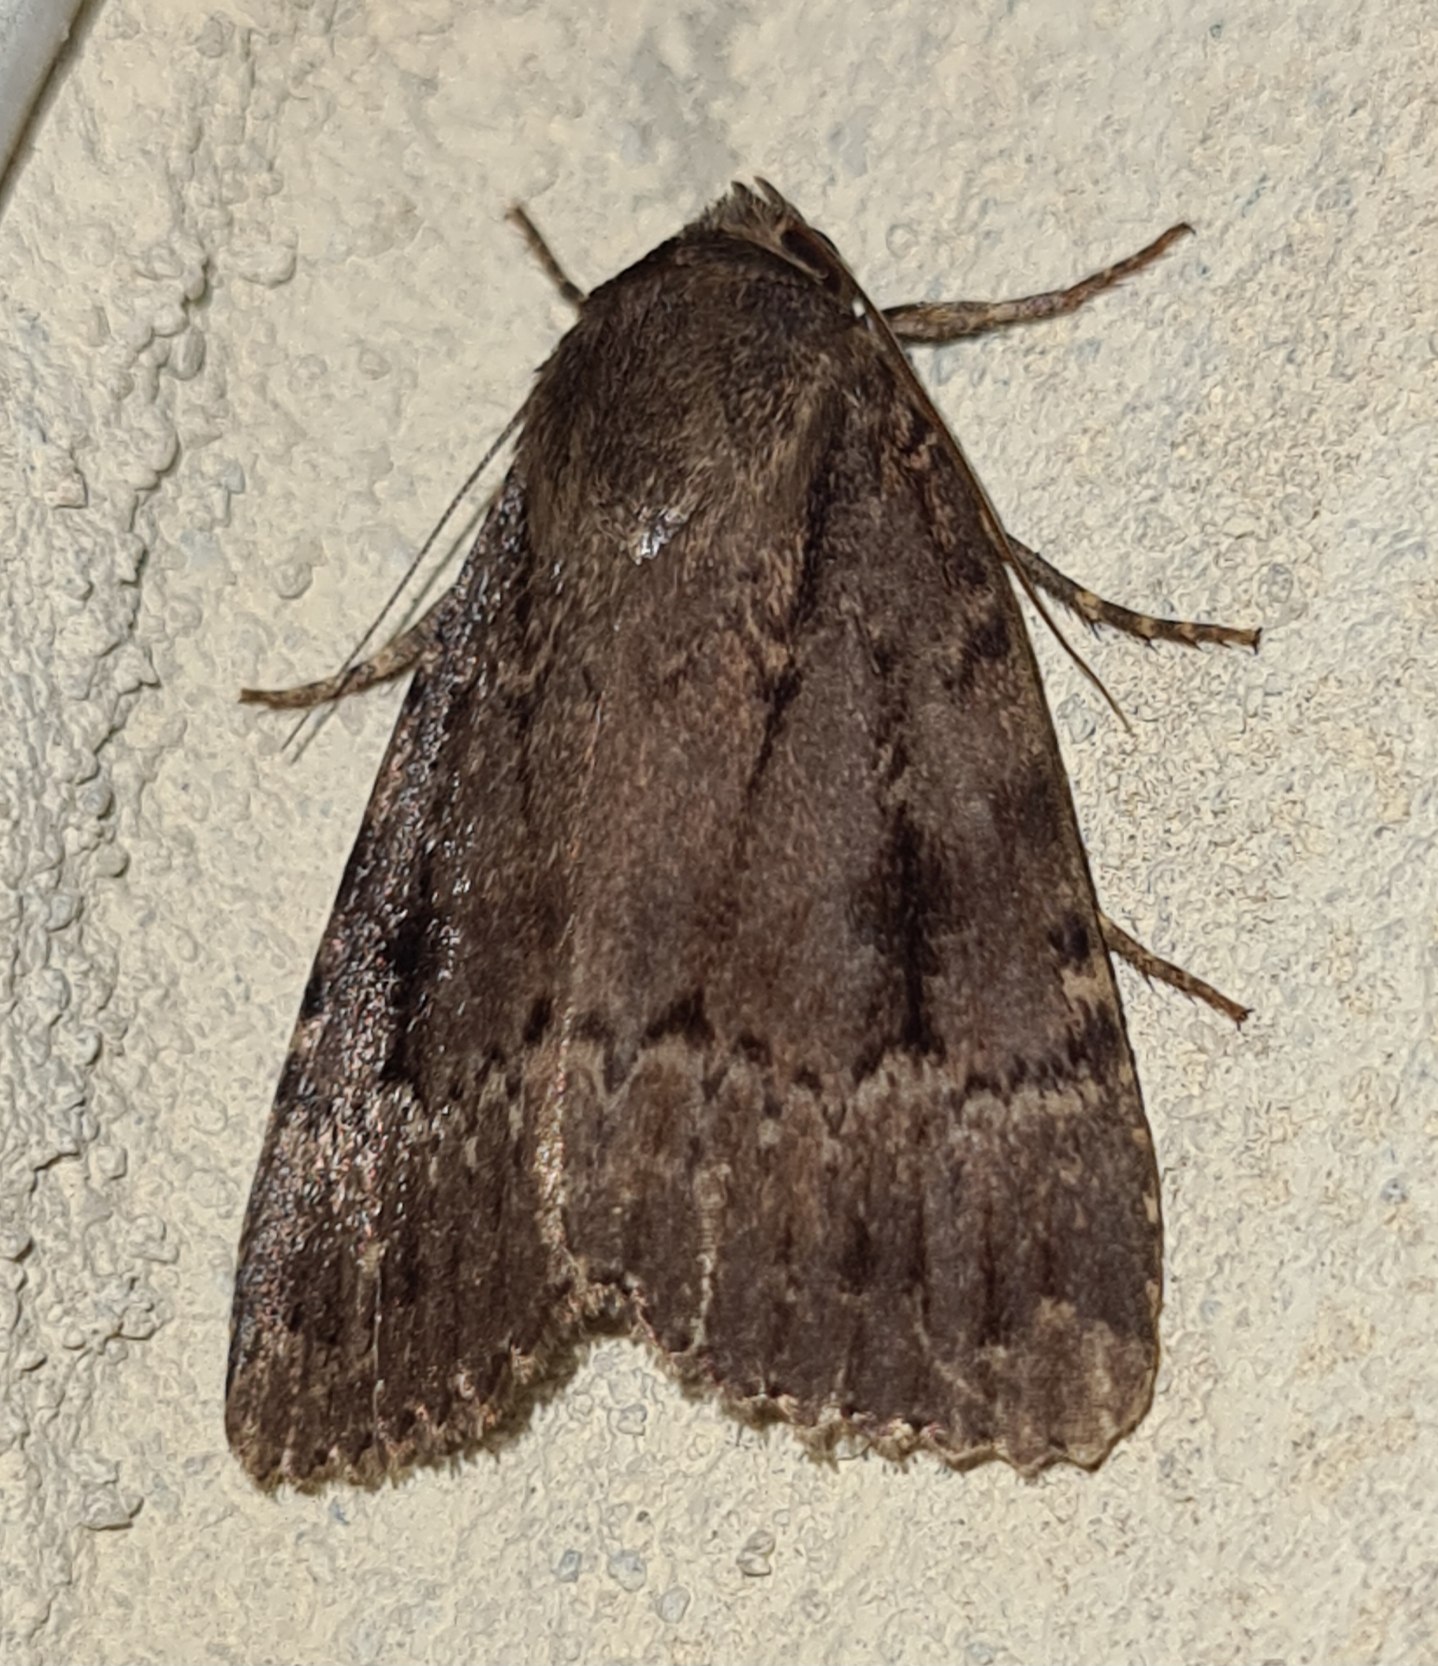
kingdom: Animalia
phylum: Arthropoda
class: Insecta
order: Lepidoptera
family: Noctuidae
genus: Amphipyra
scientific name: Amphipyra pyramidea
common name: Pyramideugle
